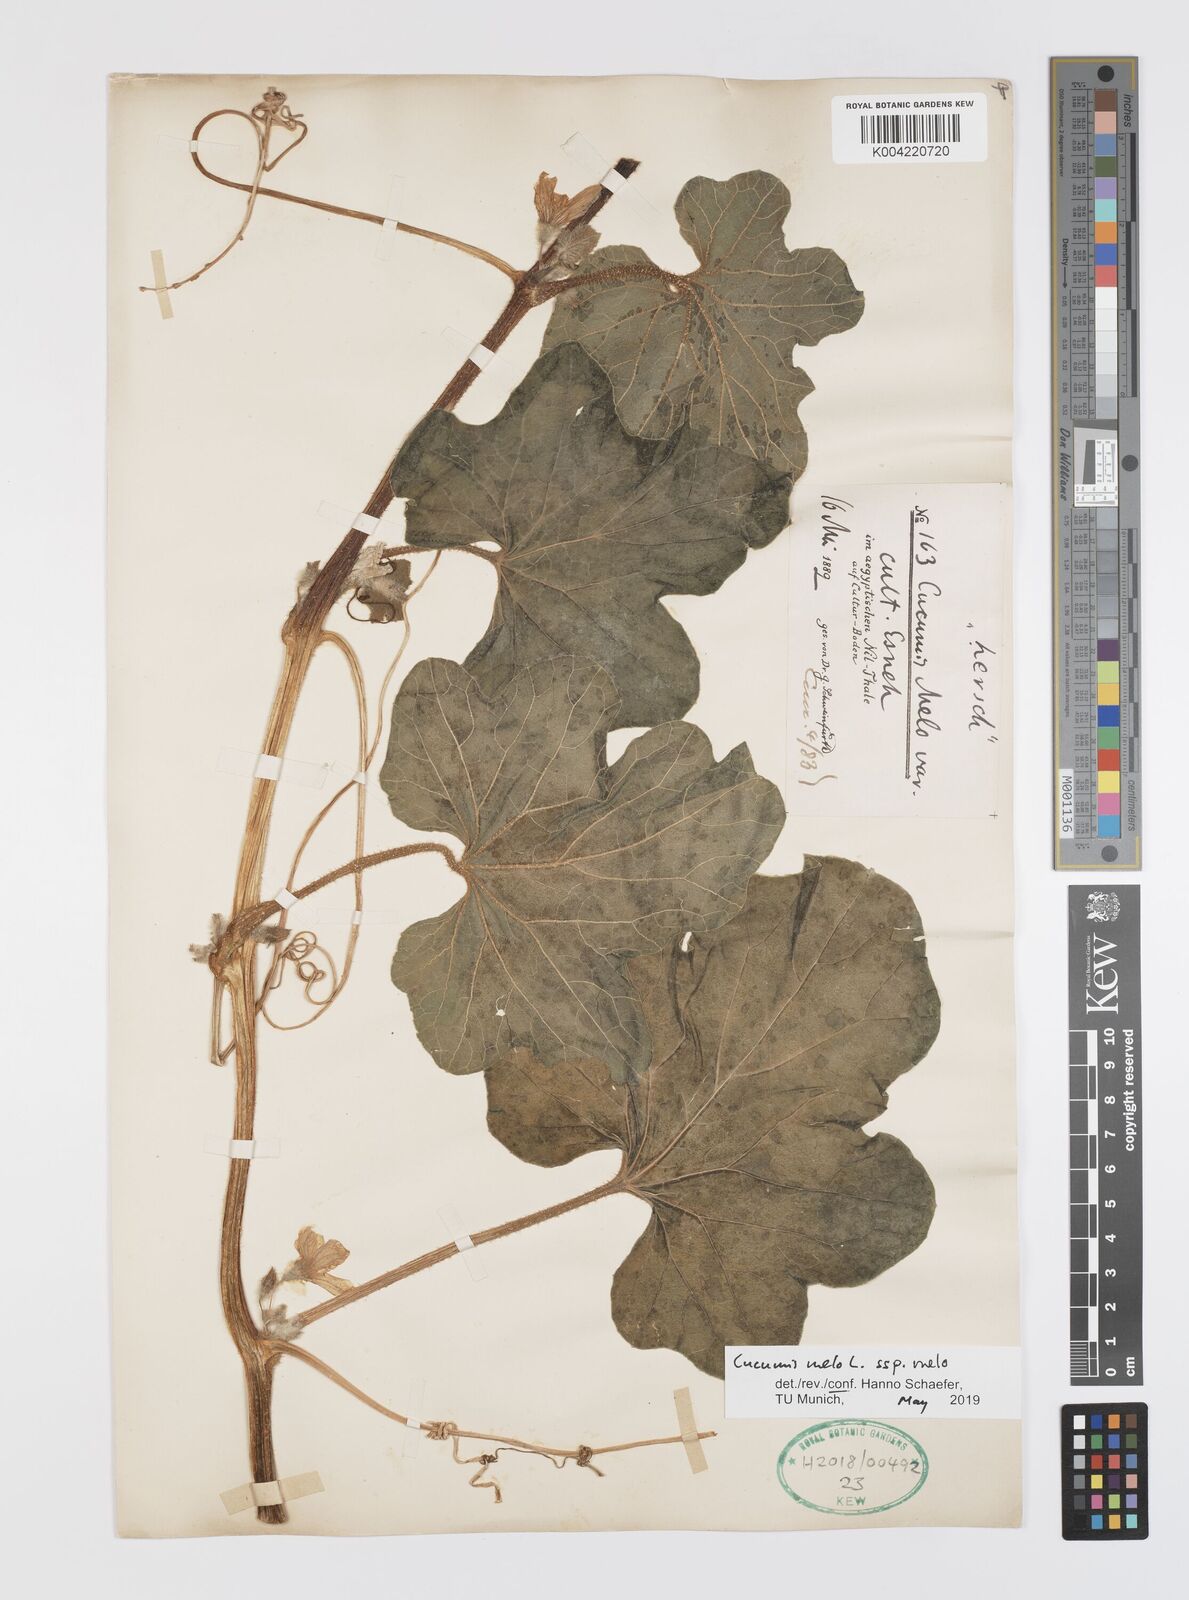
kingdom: Plantae
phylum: Tracheophyta
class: Magnoliopsida
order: Cucurbitales
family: Cucurbitaceae
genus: Cucumis
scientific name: Cucumis melo
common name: Melon
